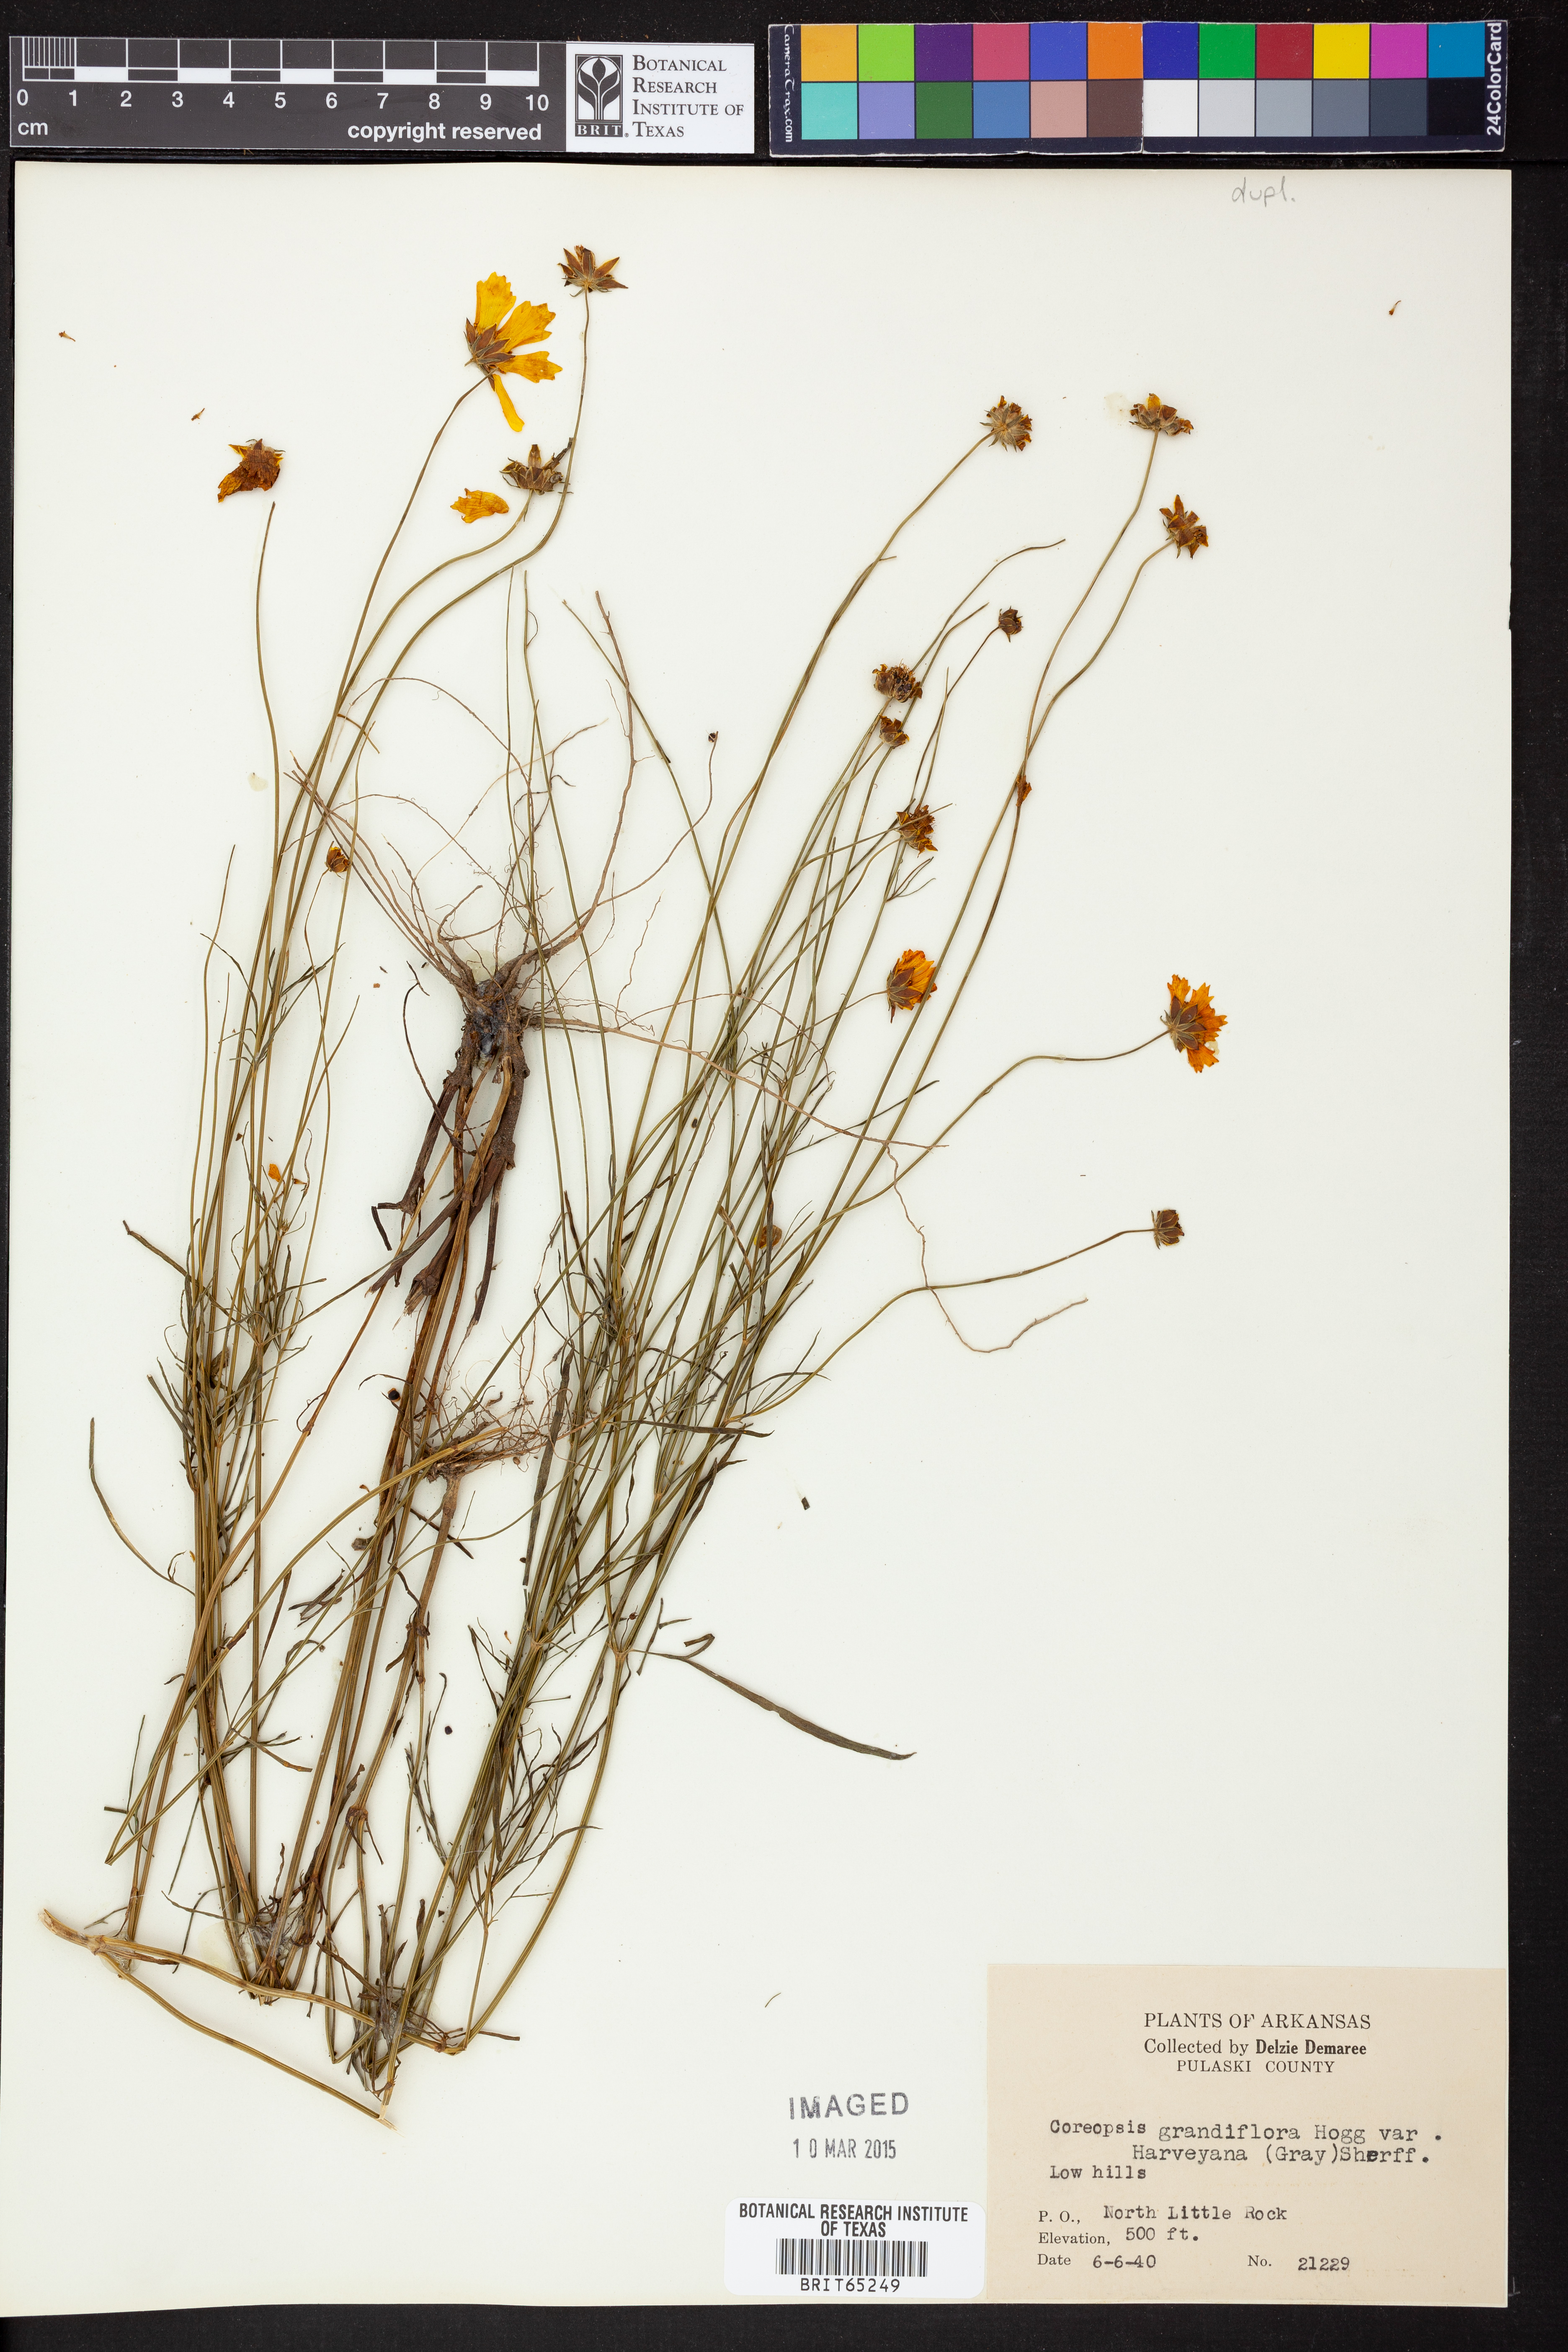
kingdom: Plantae
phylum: Tracheophyta
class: Magnoliopsida
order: Asterales
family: Asteraceae
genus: Coreopsis
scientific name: Coreopsis grandiflora
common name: Large-flowered tickseed
